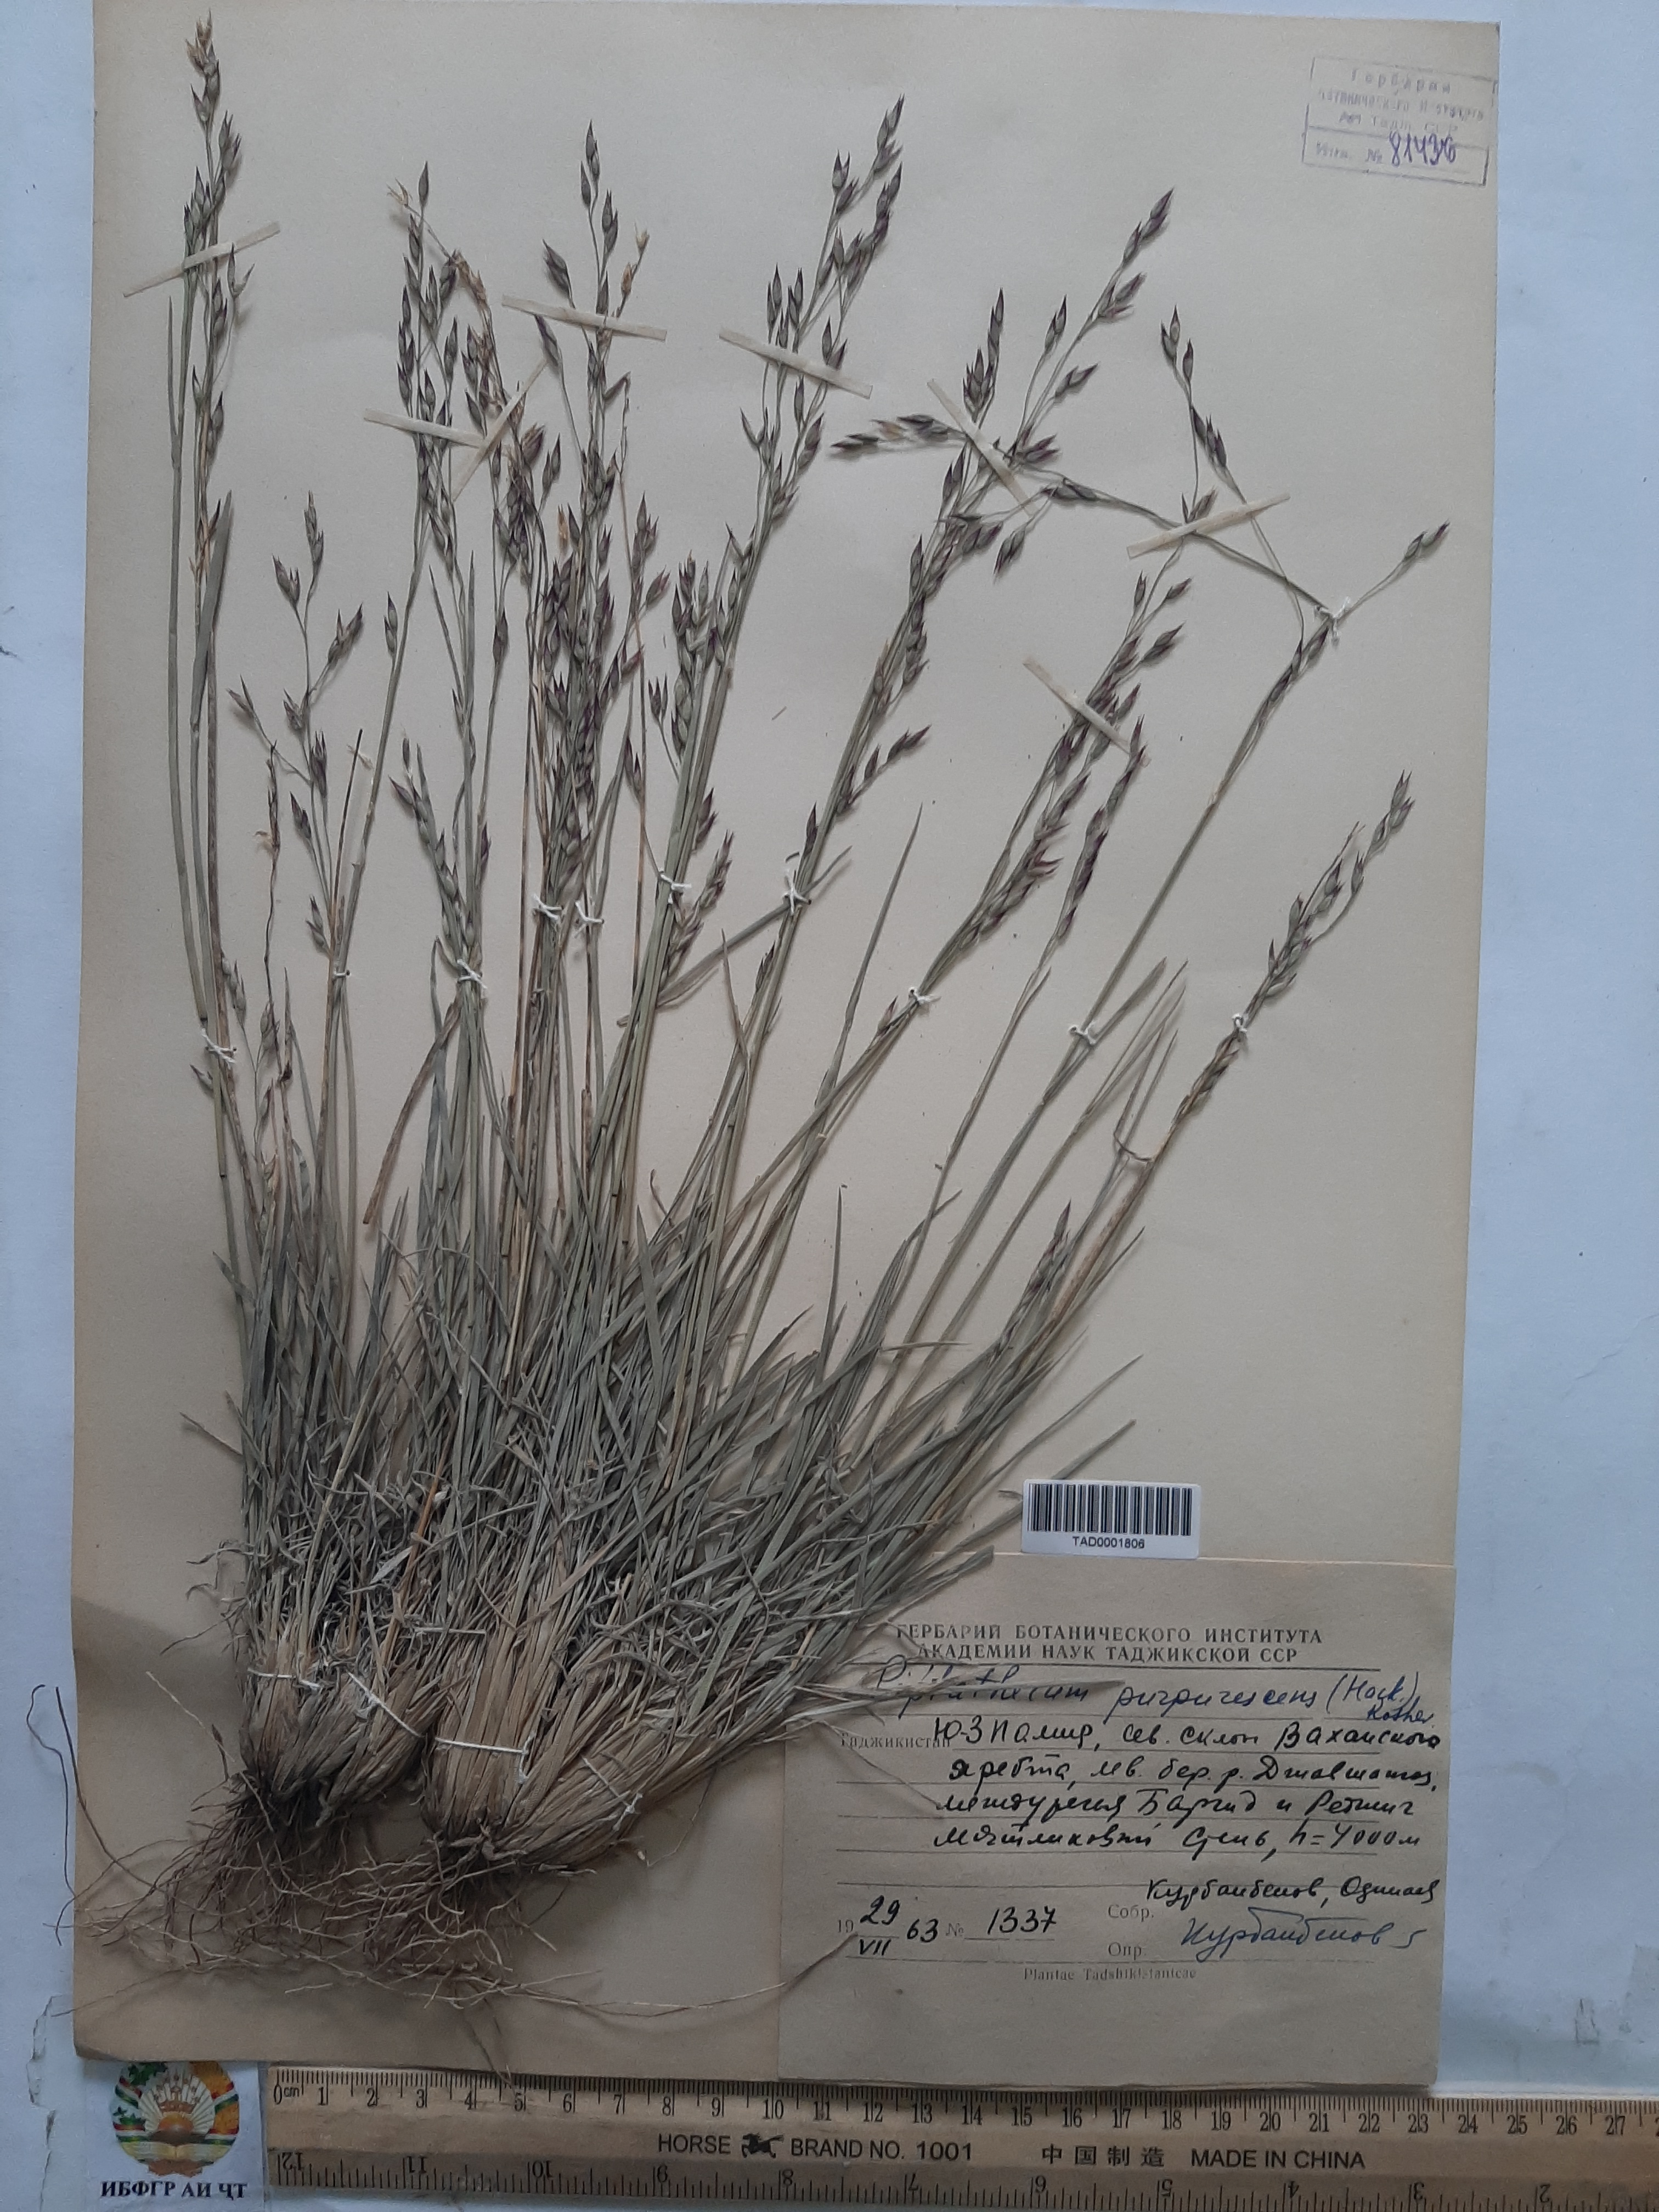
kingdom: Plantae
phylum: Tracheophyta
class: Liliopsida
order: Poales
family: Poaceae
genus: Piptatherum
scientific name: Piptatherum purpurascens
